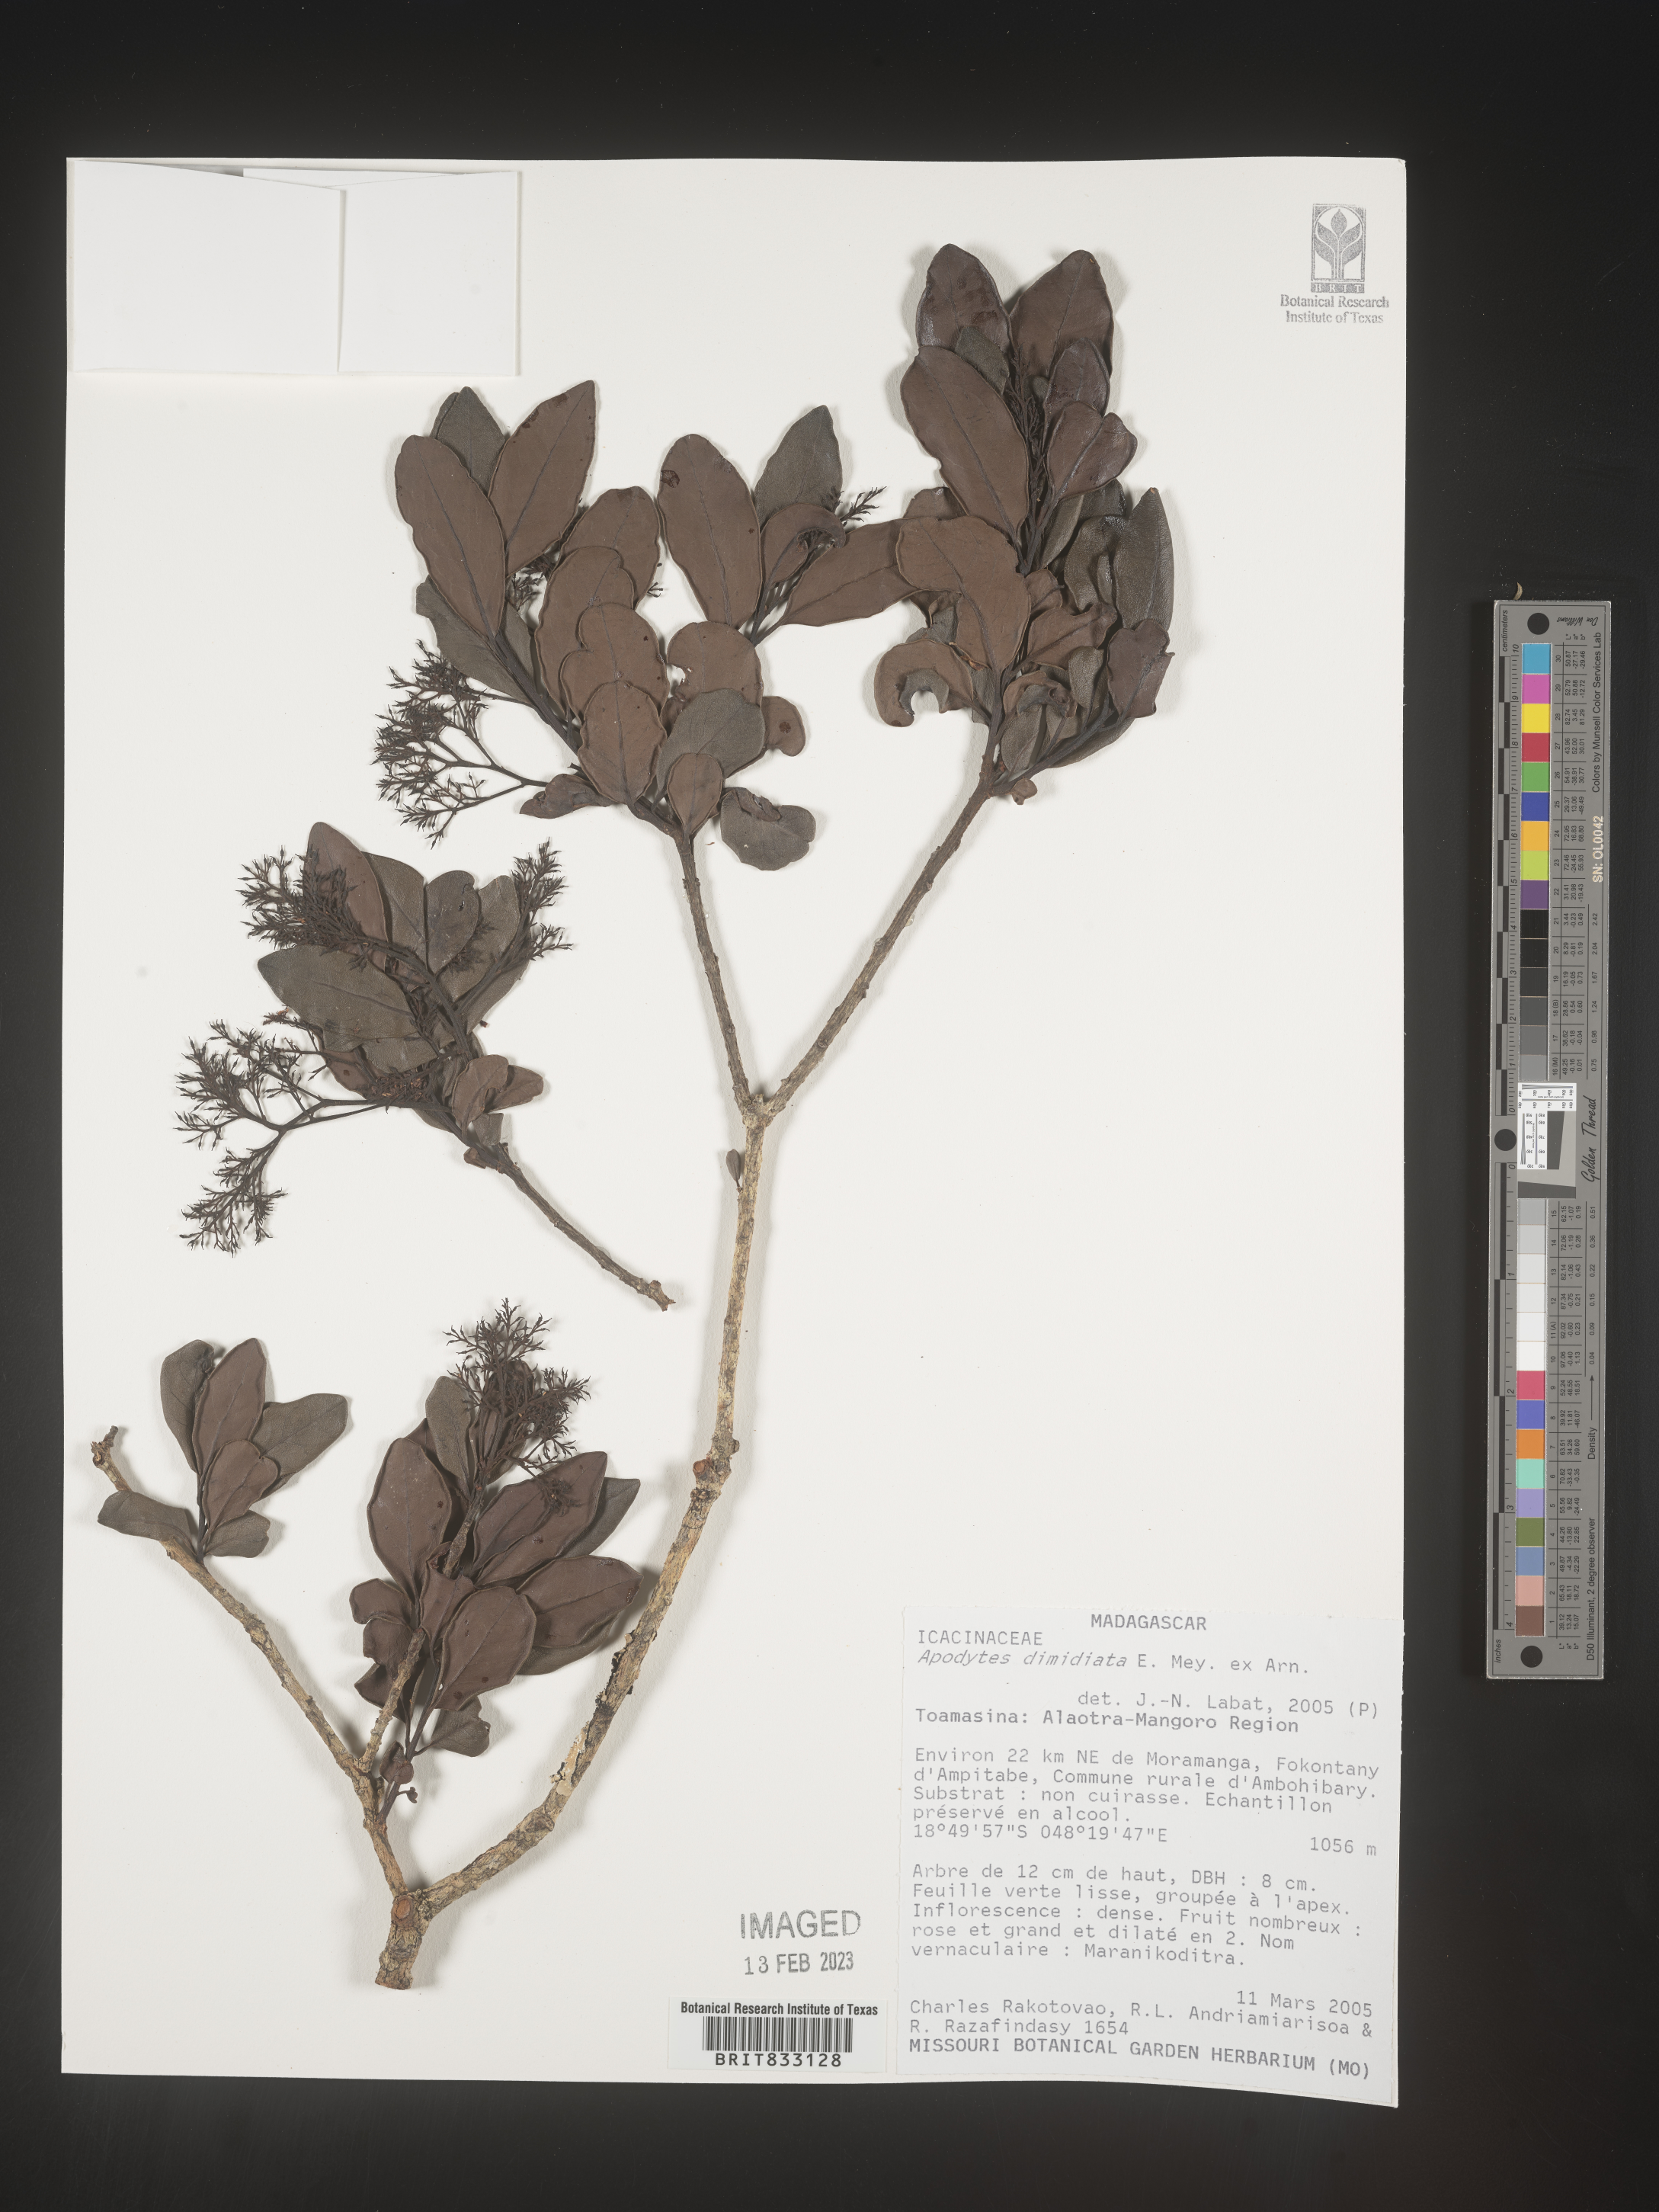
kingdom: Plantae
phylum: Tracheophyta
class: Magnoliopsida
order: Metteniusales
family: Metteniusaceae
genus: Apodytes
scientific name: Apodytes dimidiata
